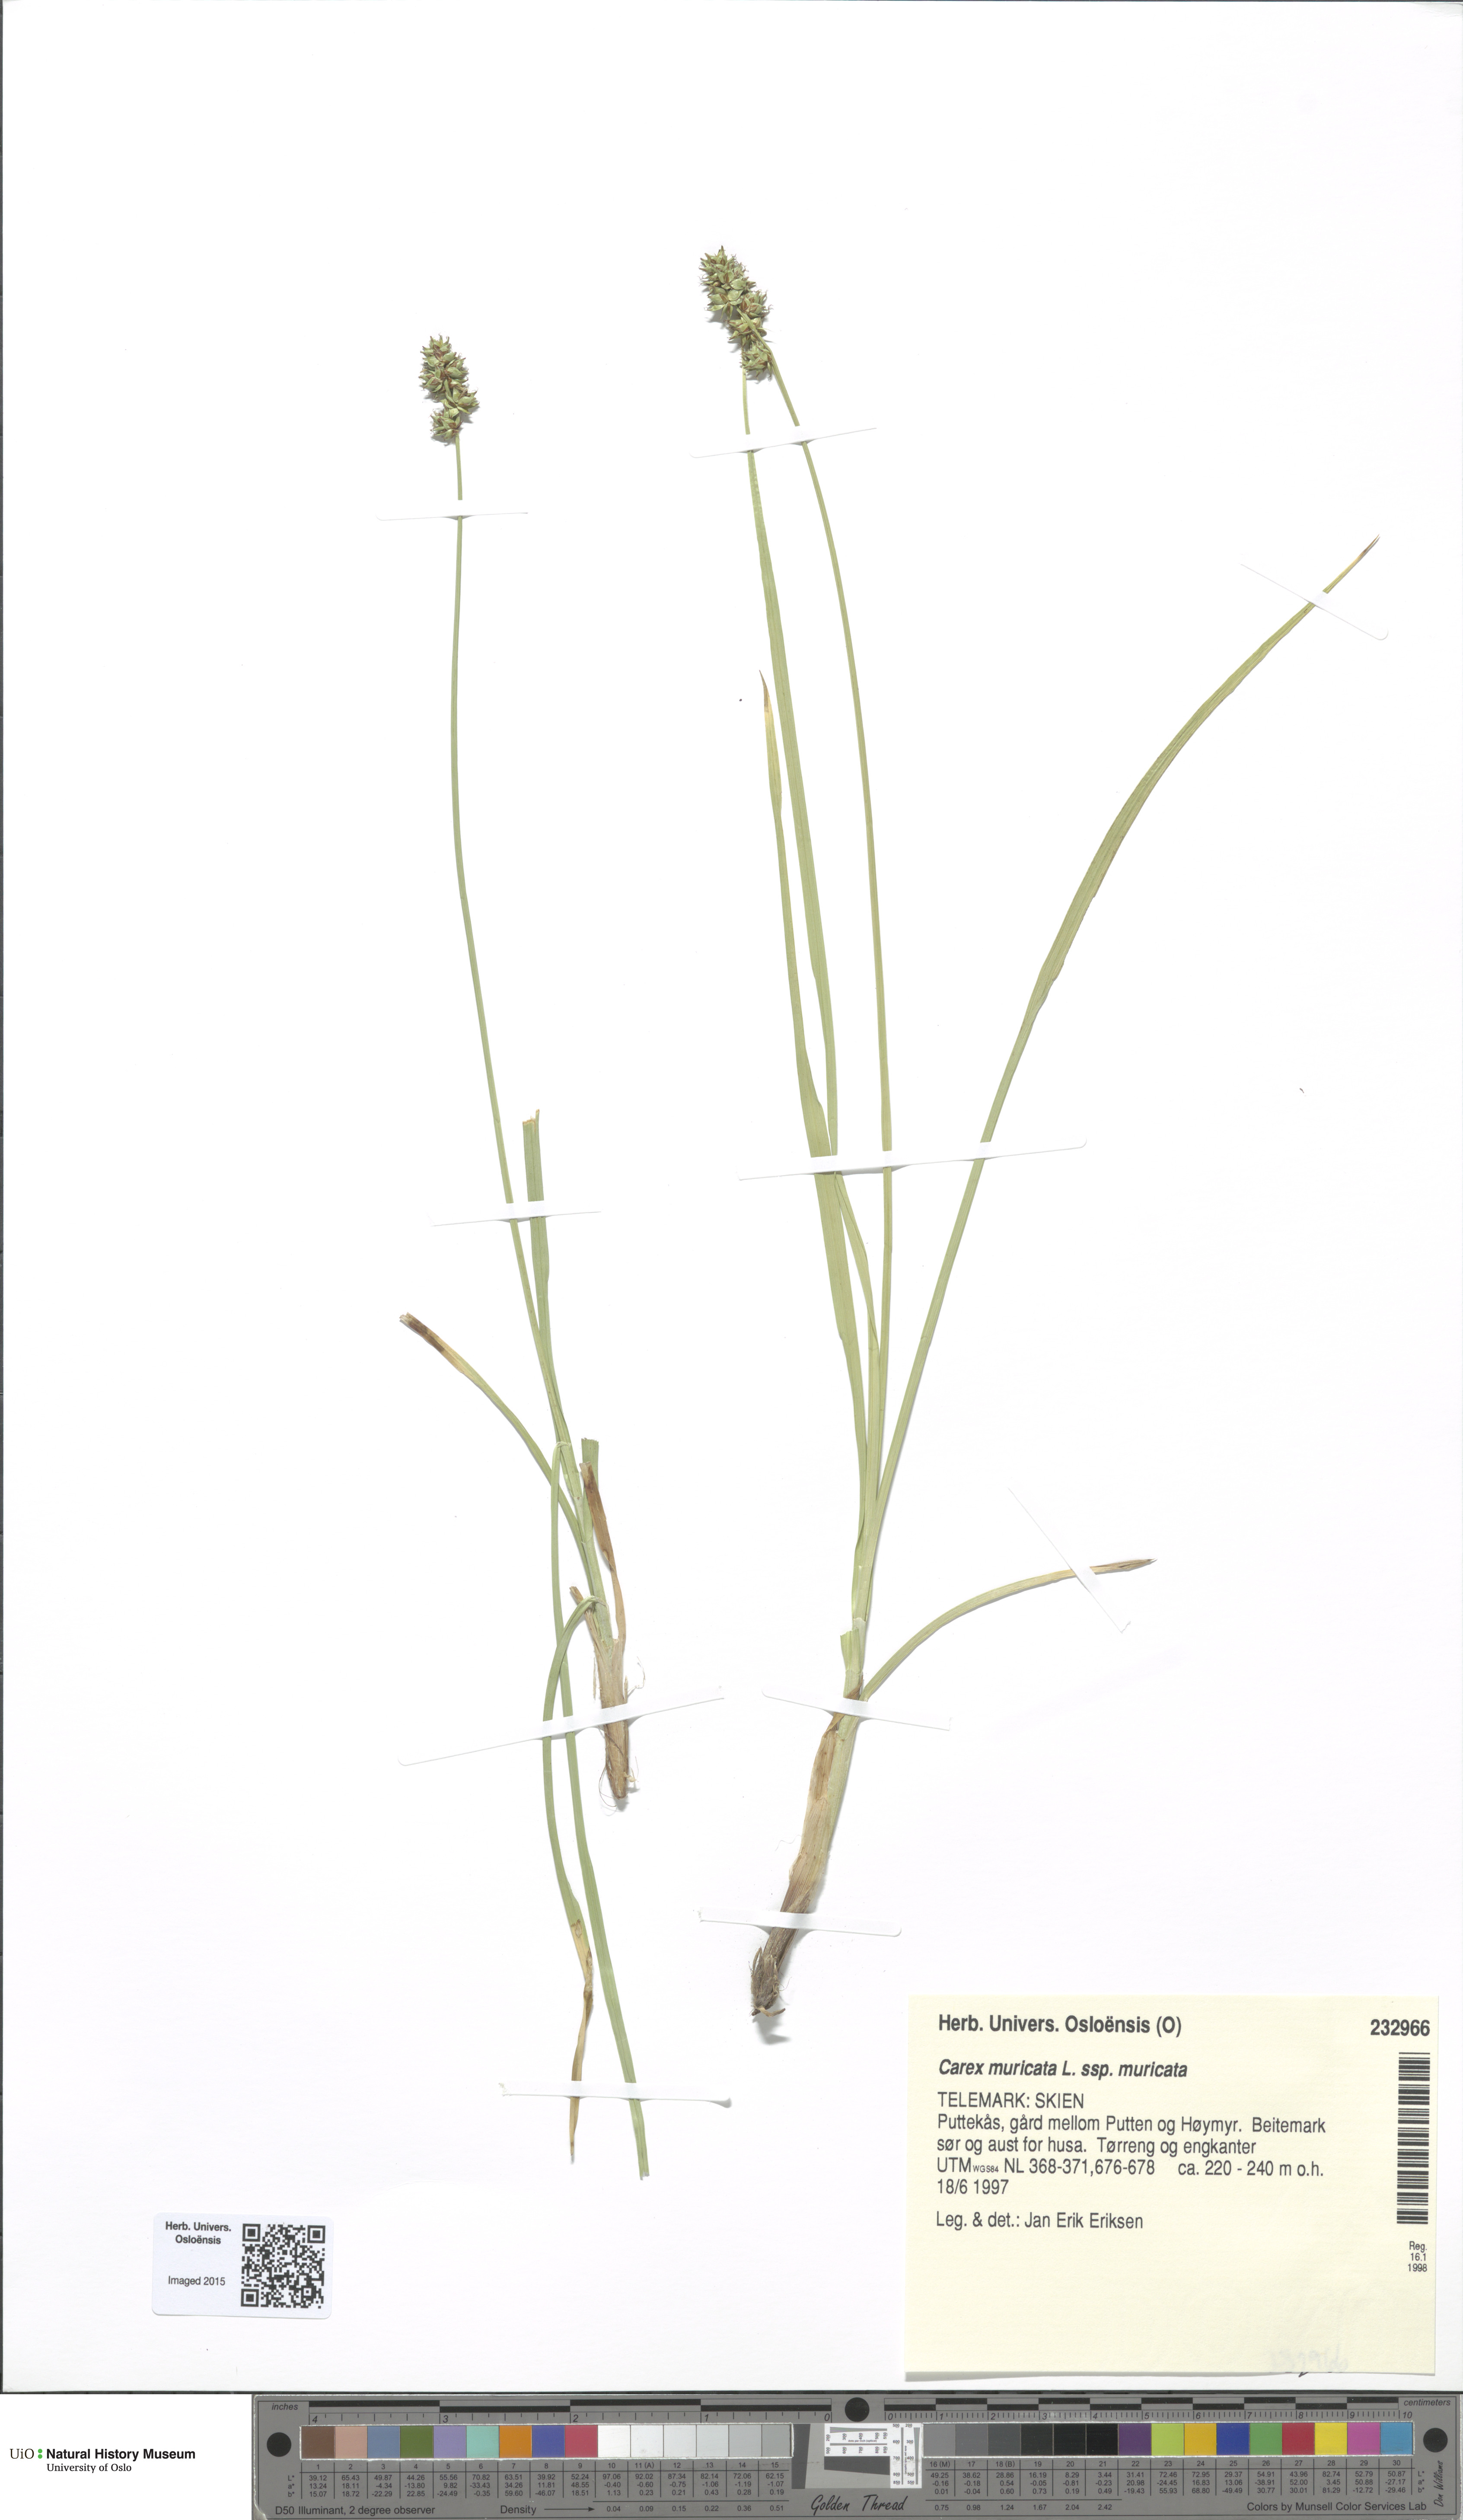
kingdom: Plantae
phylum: Tracheophyta
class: Liliopsida
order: Poales
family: Cyperaceae
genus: Carex
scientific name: Carex muricata
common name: Rough sedge
